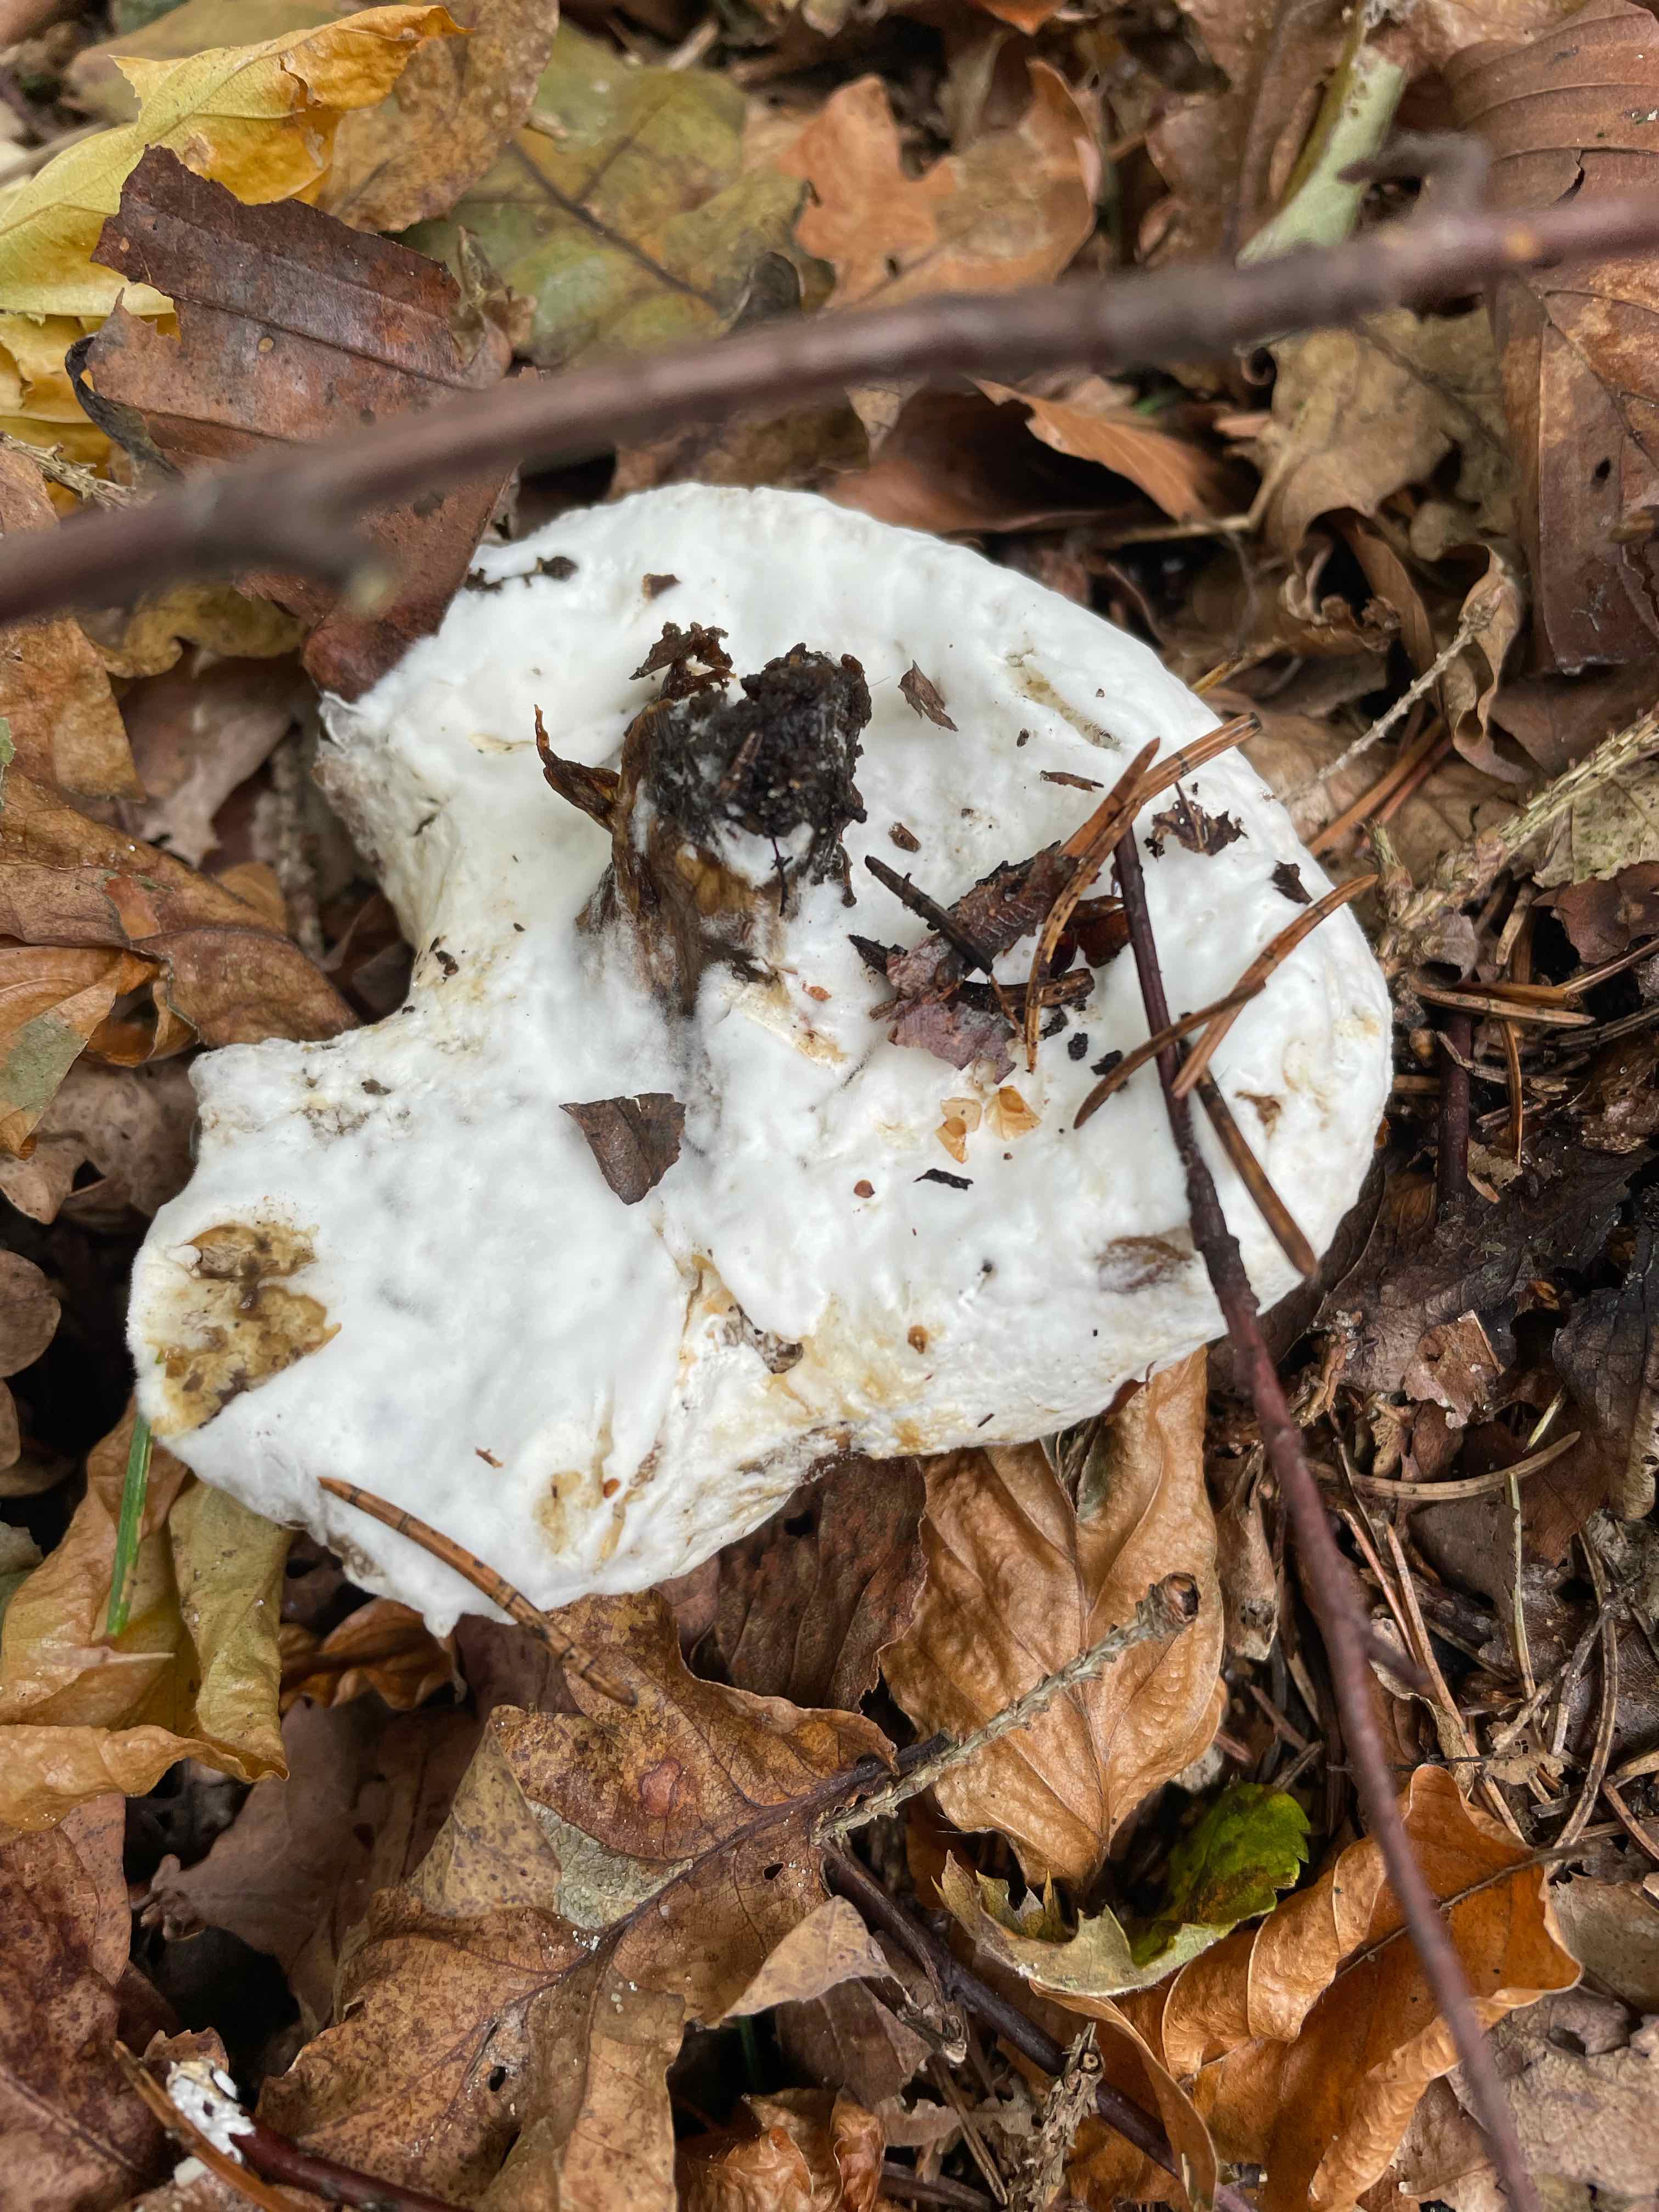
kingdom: Fungi
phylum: Ascomycota
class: Sordariomycetes
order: Hypocreales
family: Hypocreaceae
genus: Hypomyces
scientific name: Hypomyces
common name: snylteskorpe
